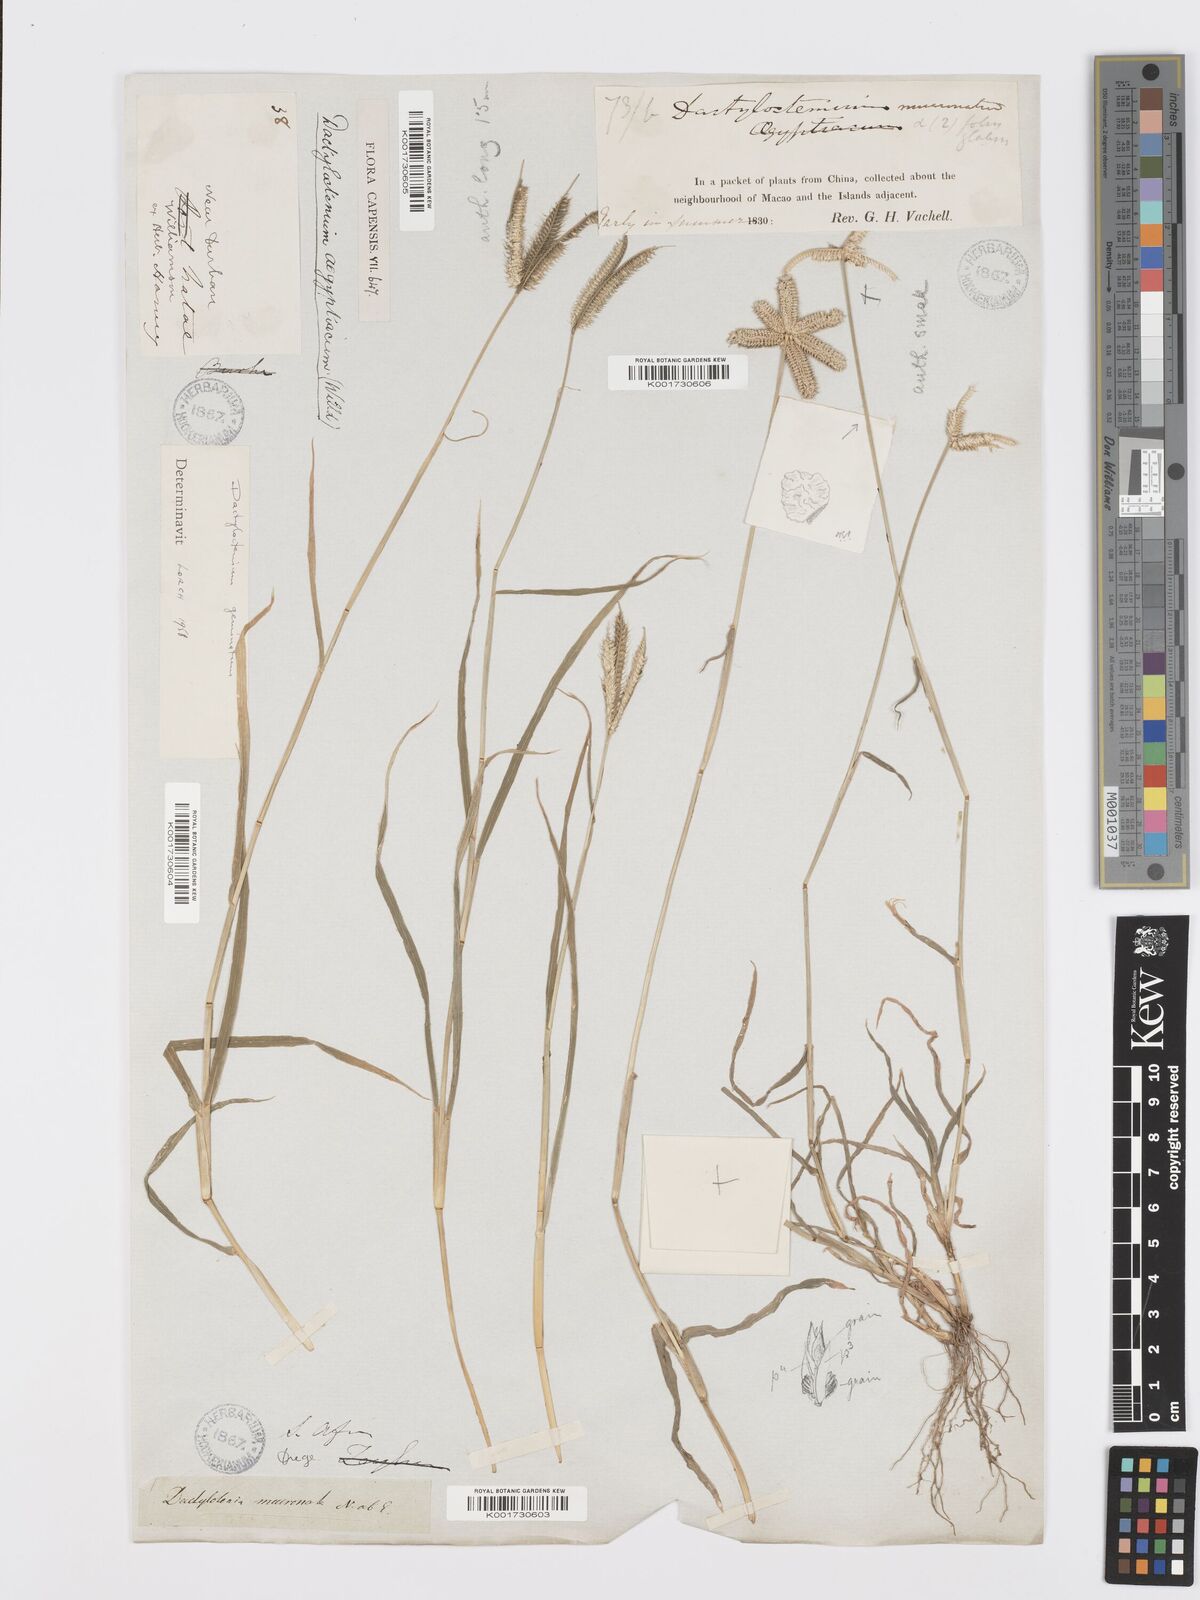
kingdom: Plantae
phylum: Tracheophyta
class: Liliopsida
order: Poales
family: Poaceae
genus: Dactyloctenium
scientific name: Dactyloctenium giganteum
